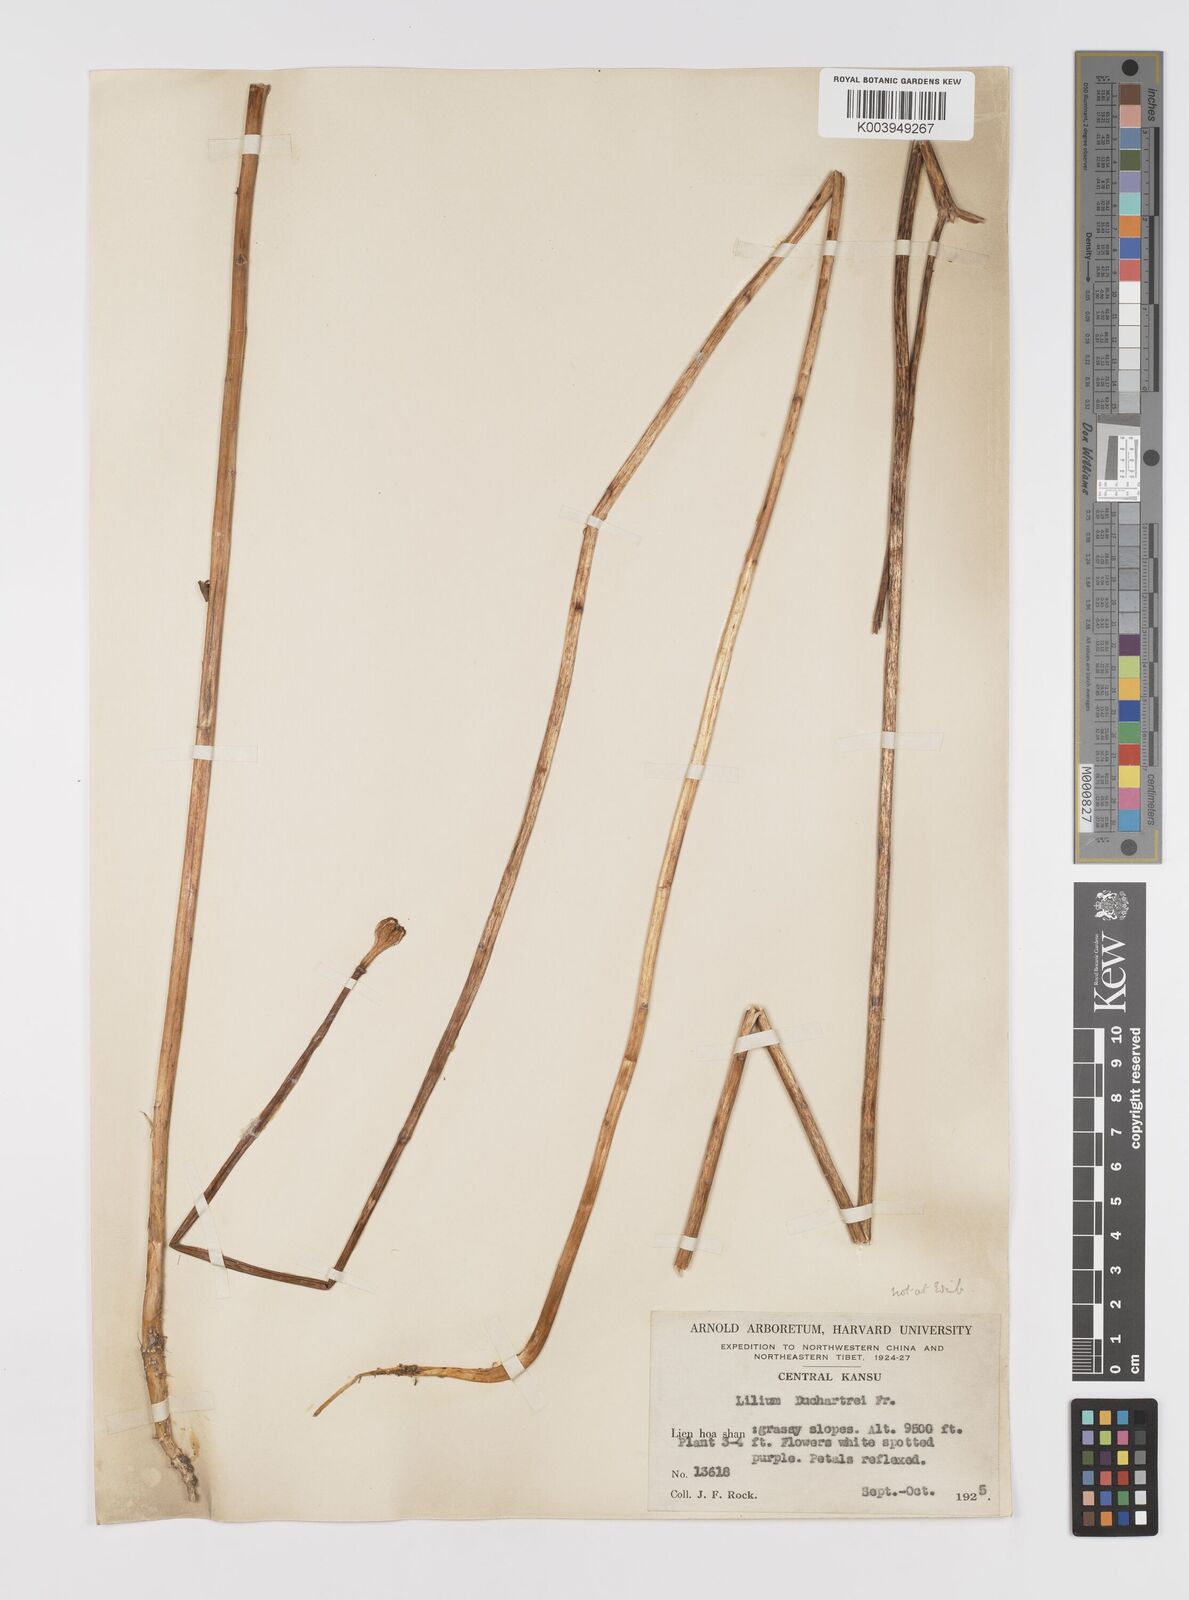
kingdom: Plantae
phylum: Tracheophyta
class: Liliopsida
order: Liliales
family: Liliaceae
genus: Lilium
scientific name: Lilium duchartrei
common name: Duchartre lily
